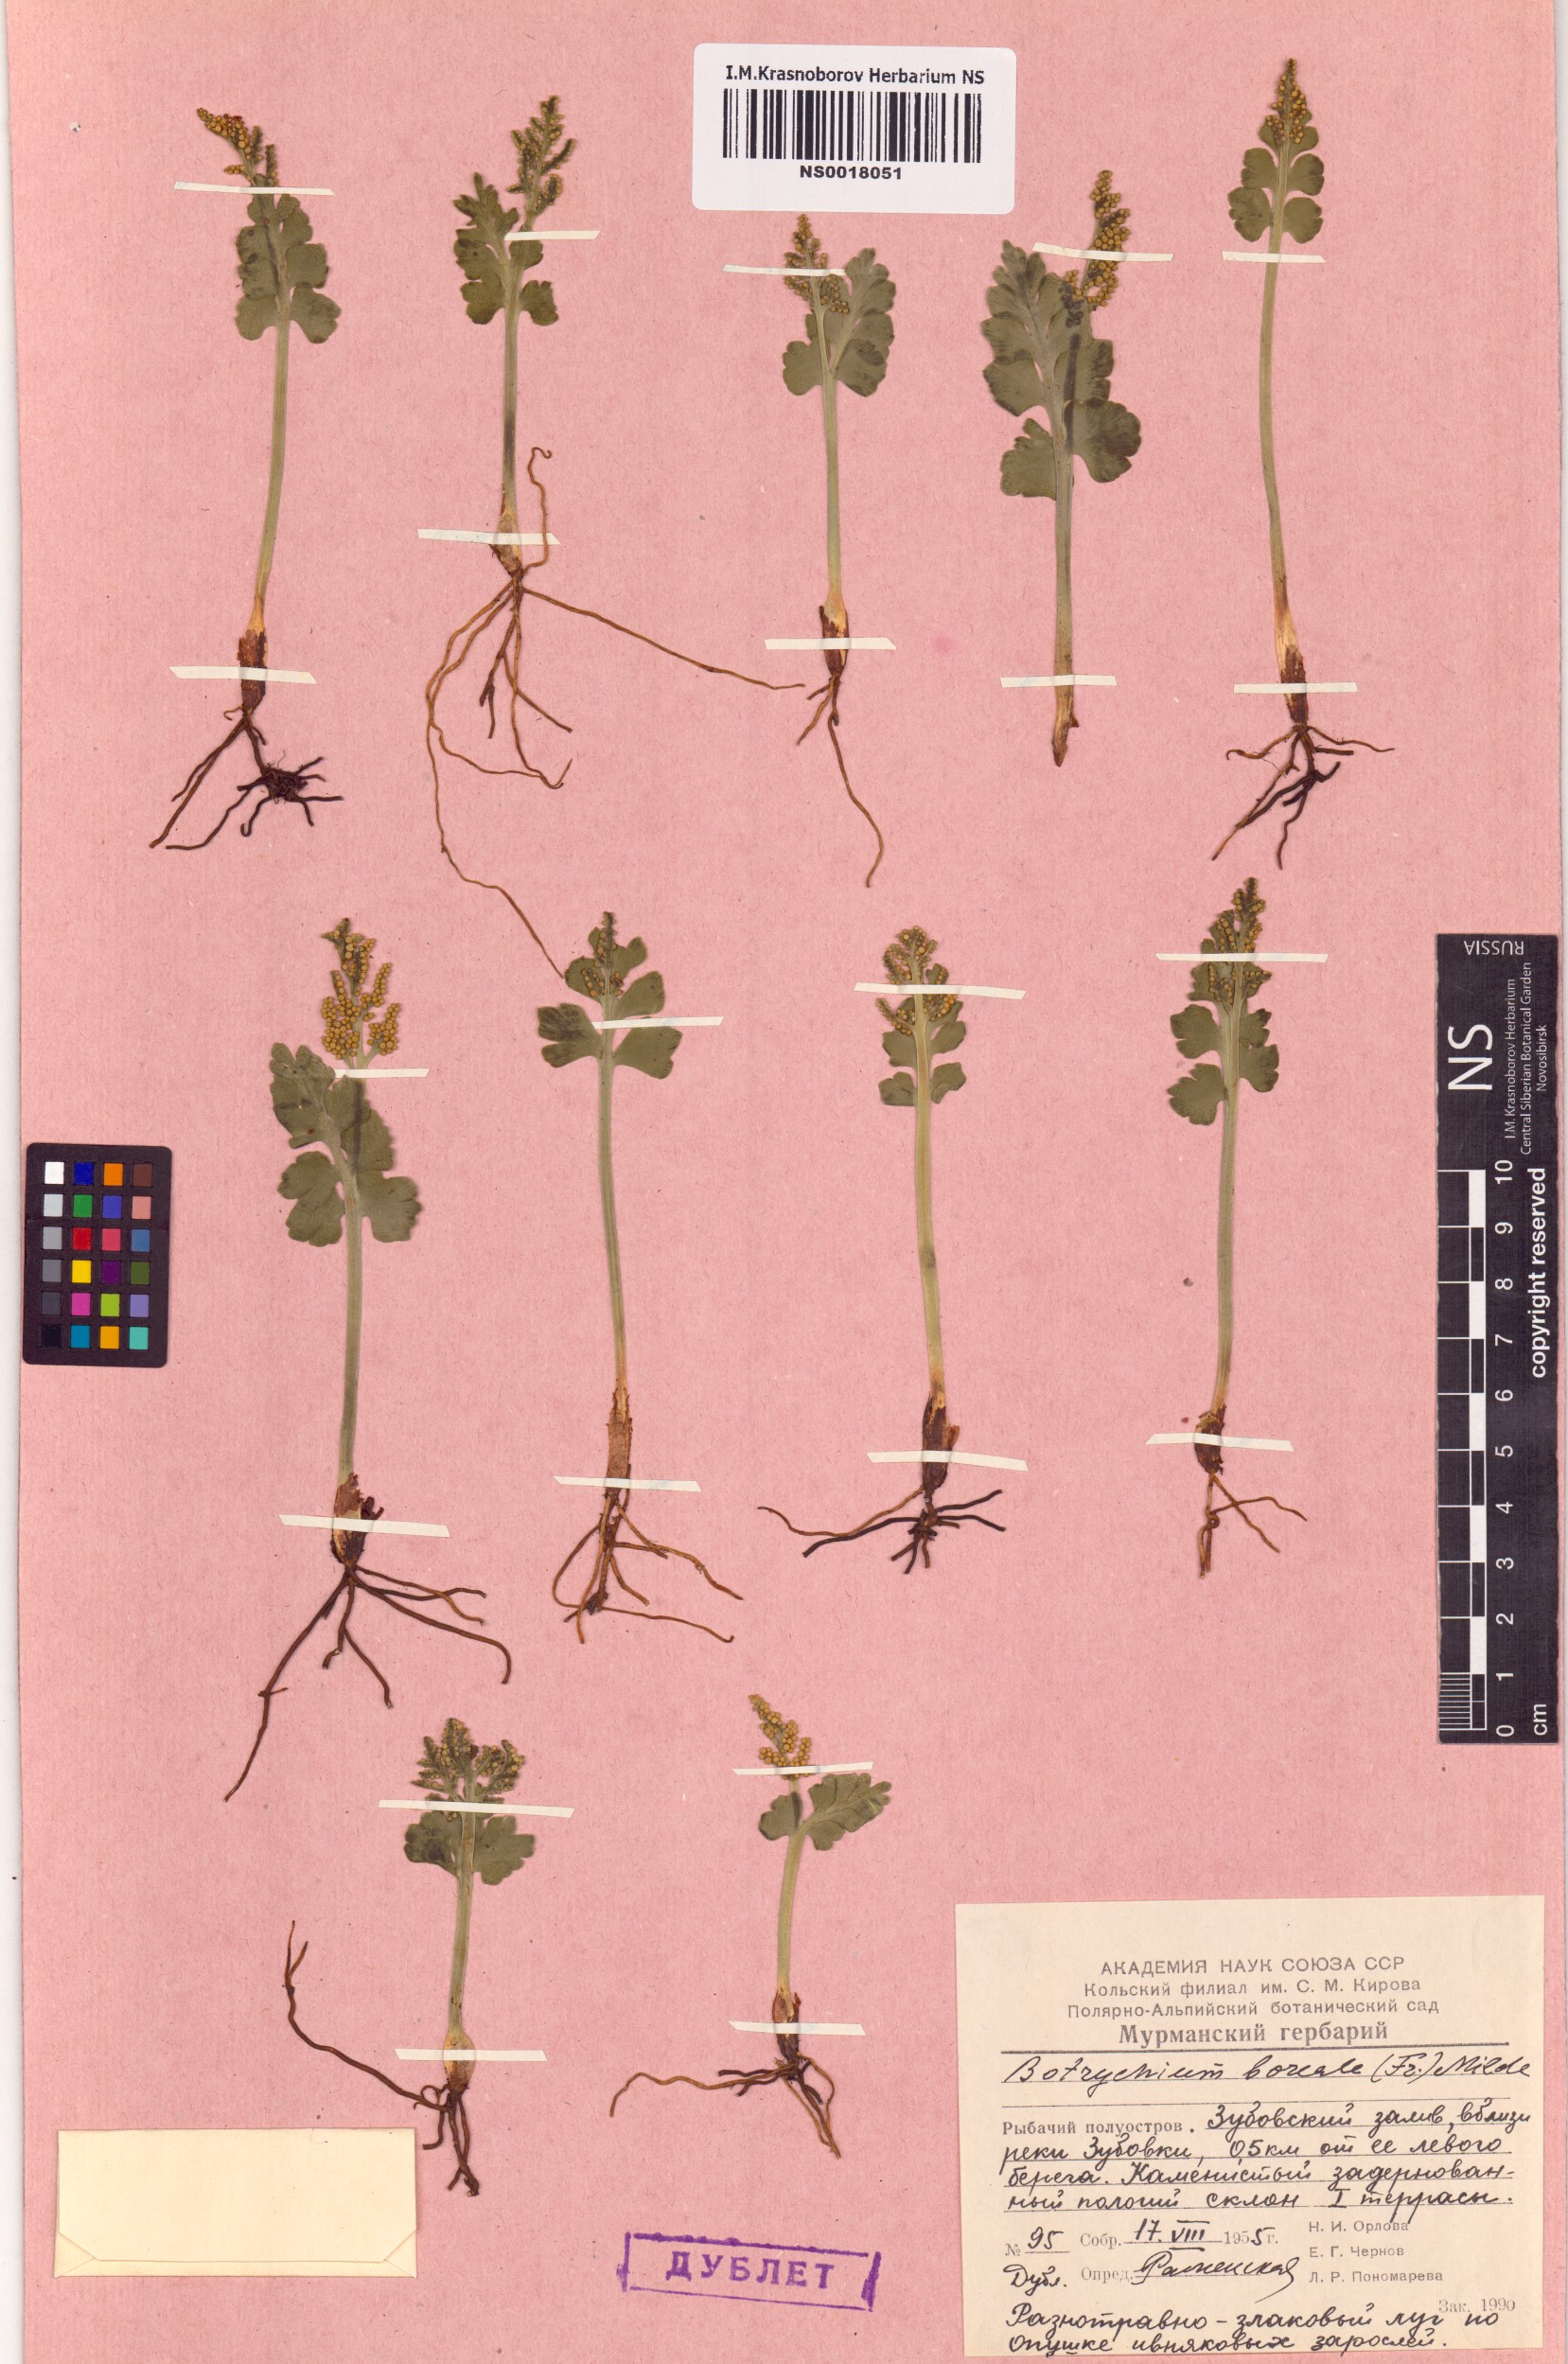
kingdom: Plantae
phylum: Tracheophyta
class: Polypodiopsida
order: Ophioglossales
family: Ophioglossaceae
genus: Botrychium
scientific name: Botrychium boreale
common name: Boreal moonwort
